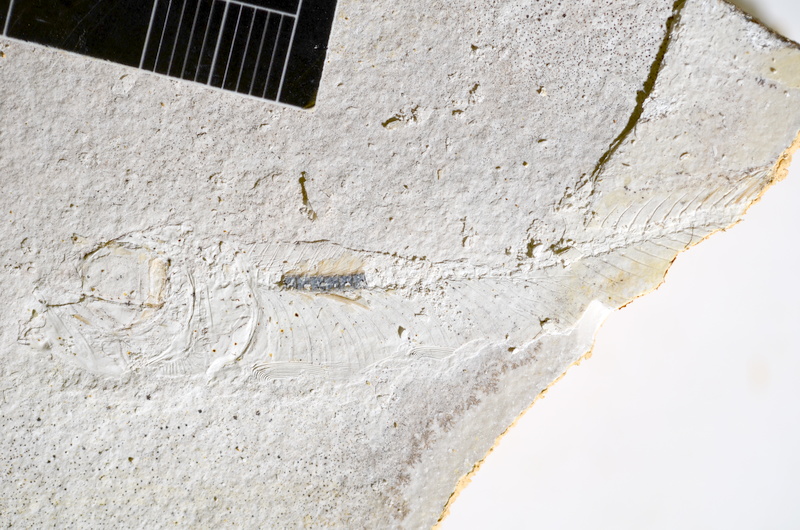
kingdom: Animalia
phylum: Chordata
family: Ascalaboidae
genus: Ebertichthys
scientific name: Ebertichthys ettlingensis
